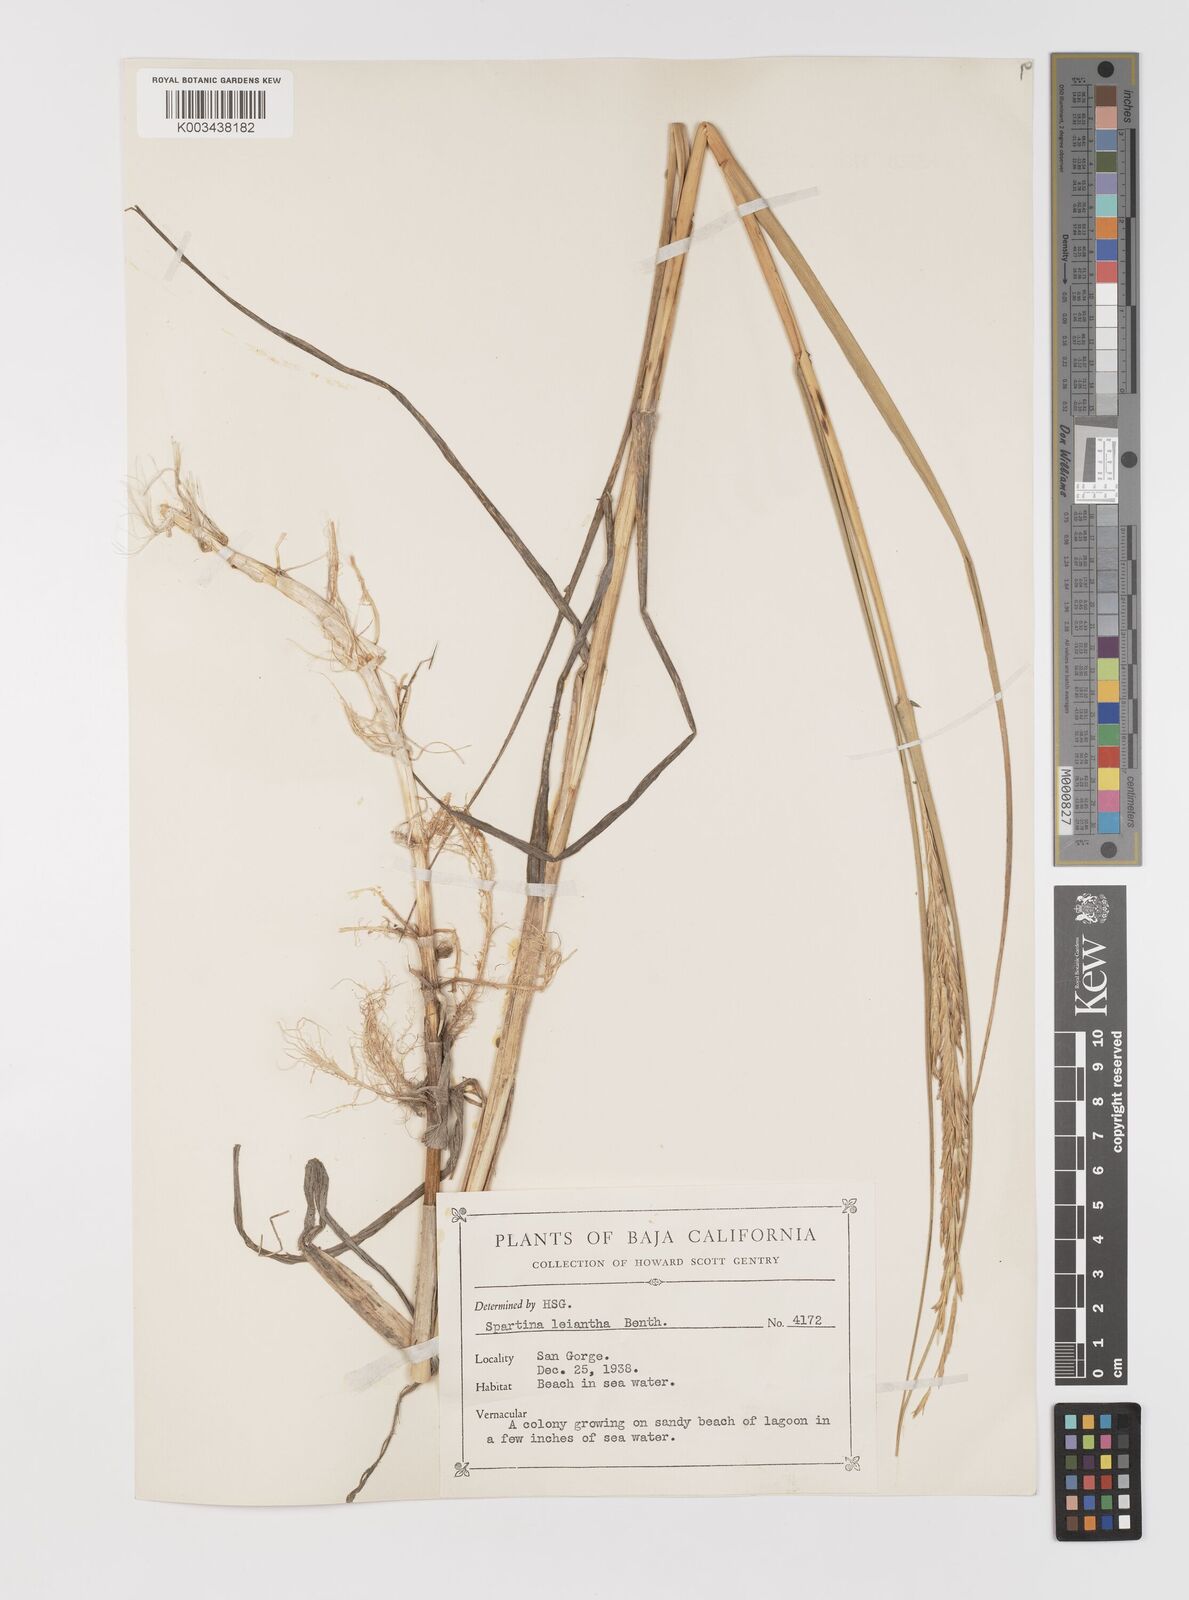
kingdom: Plantae
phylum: Tracheophyta
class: Liliopsida
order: Poales
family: Poaceae
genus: Sporobolus
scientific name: Sporobolus foliosus
